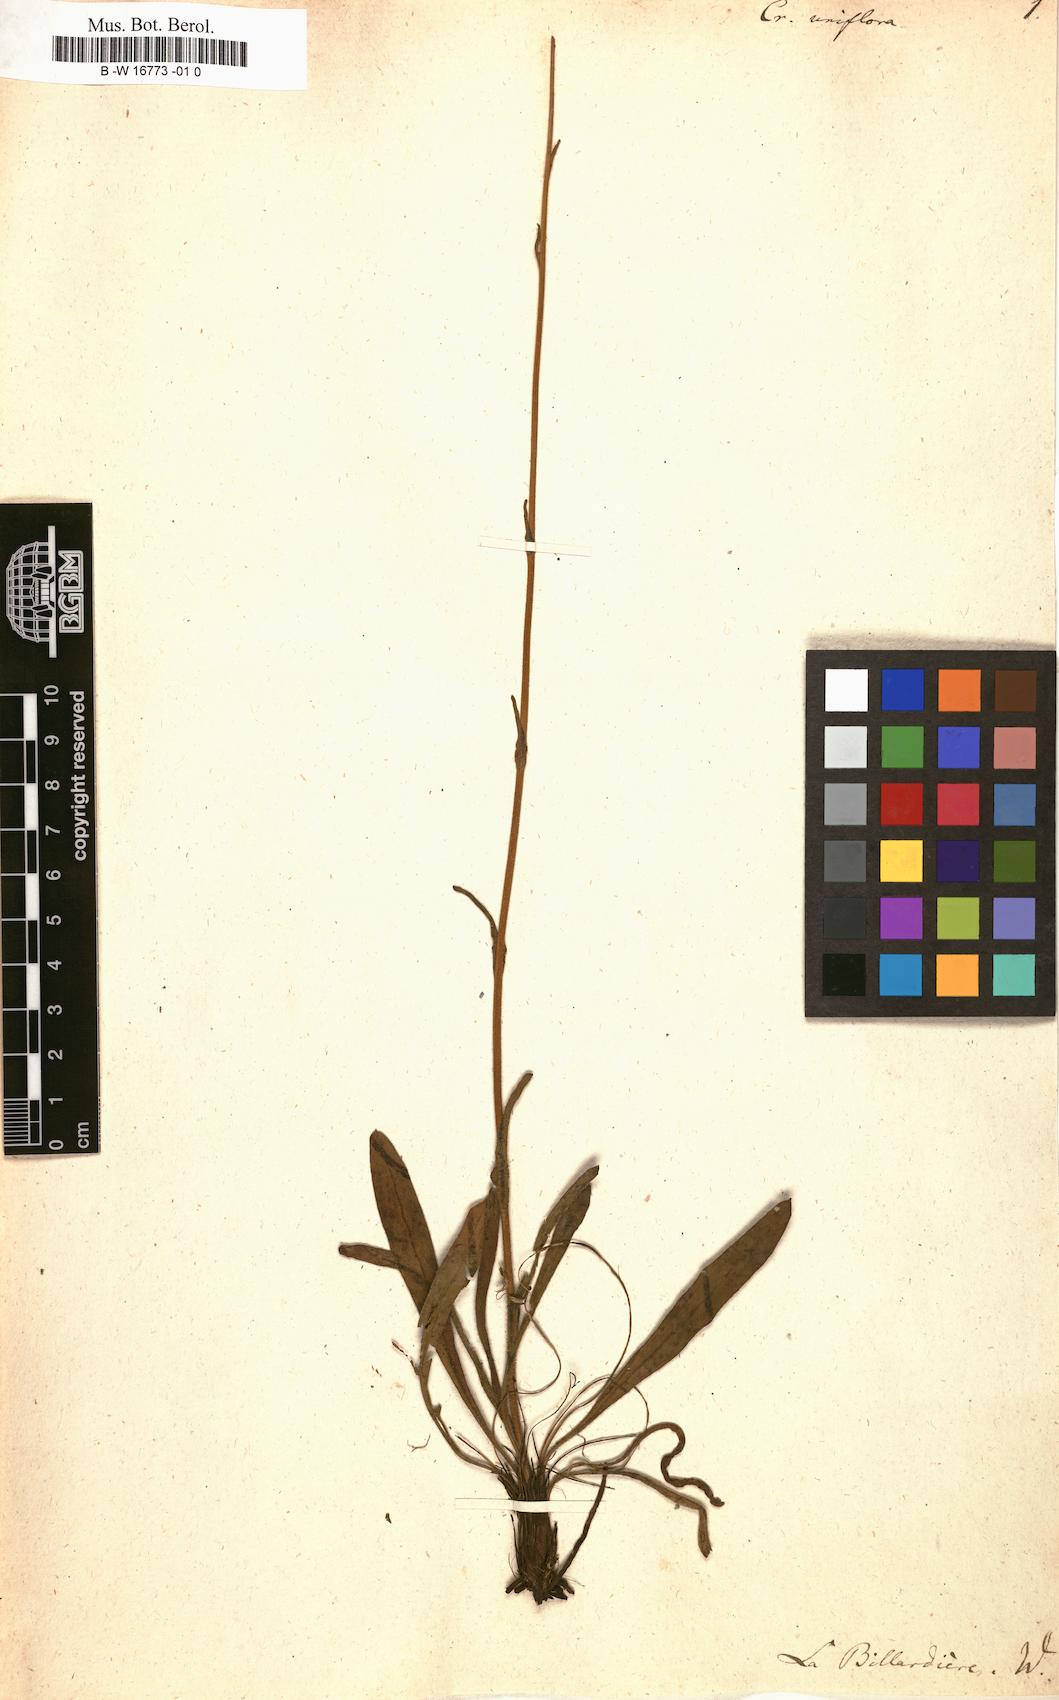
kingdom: Plantae
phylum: Tracheophyta
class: Magnoliopsida
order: Asterales
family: Asteraceae
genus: Craspedia
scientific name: Craspedia uniflora
